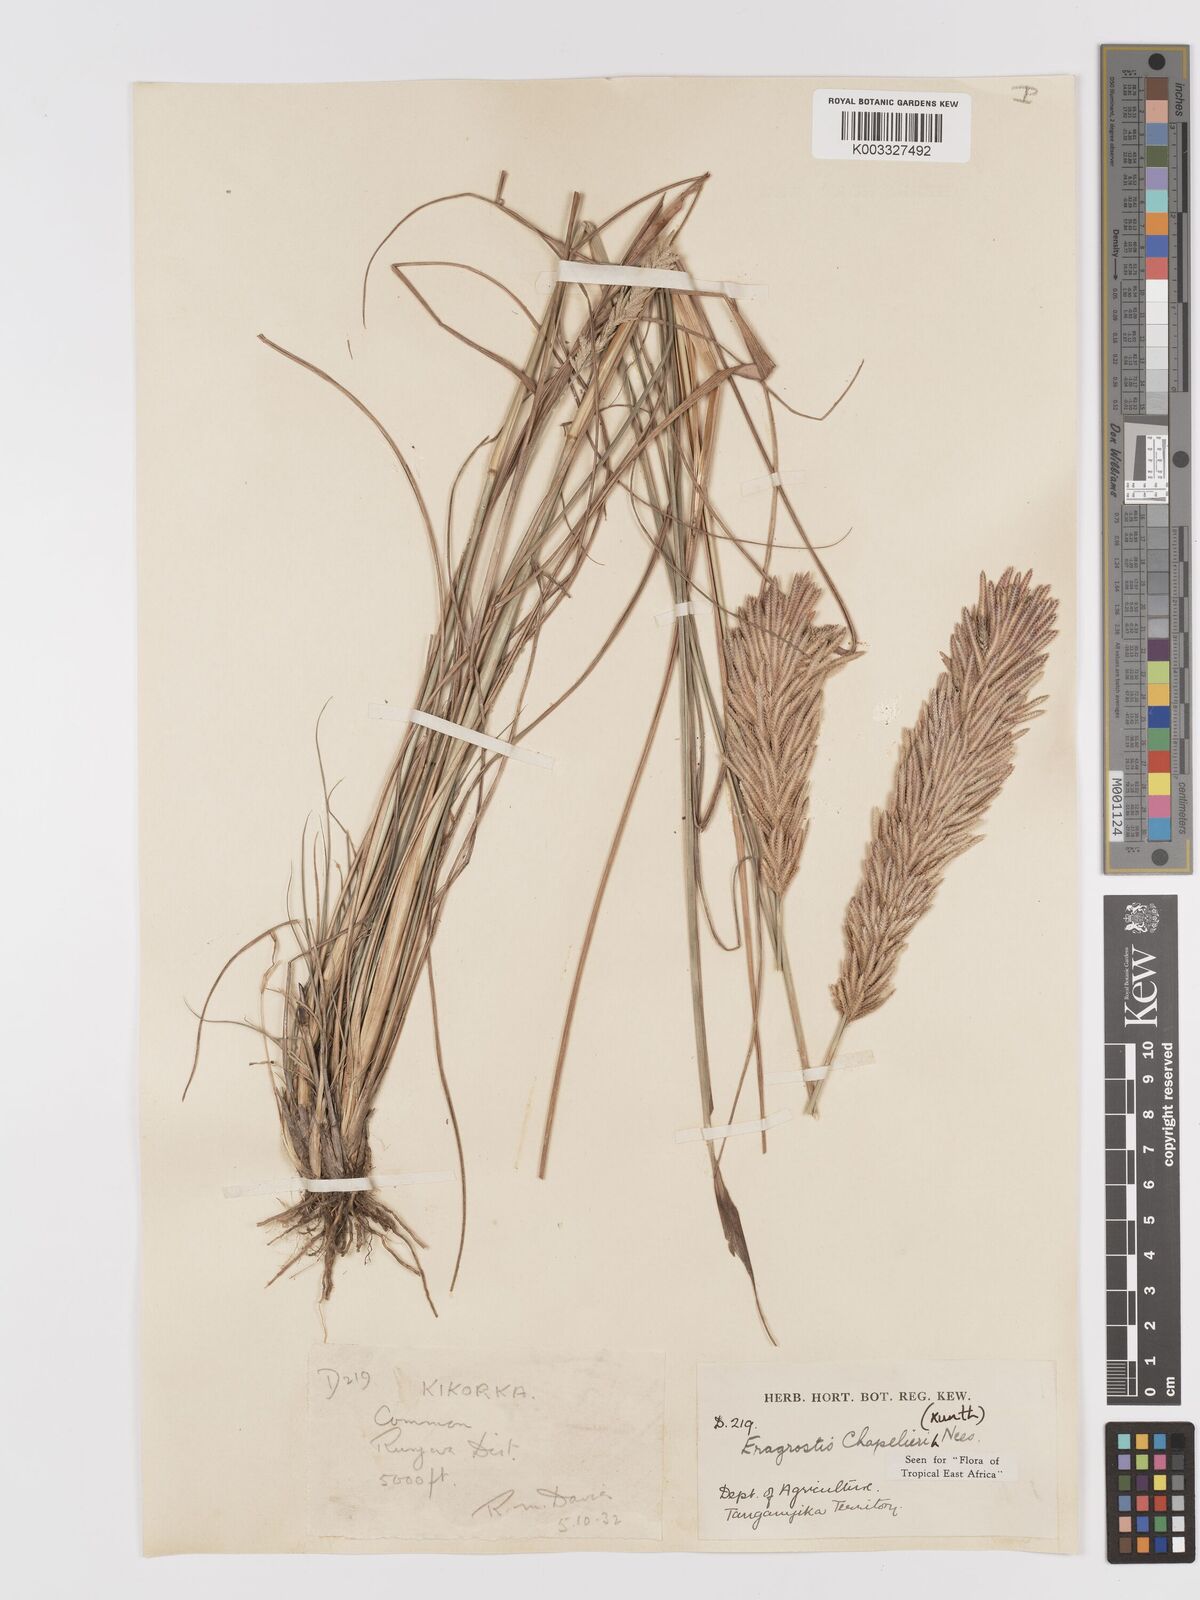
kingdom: Plantae
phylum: Tracheophyta
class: Liliopsida
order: Poales
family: Poaceae
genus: Eragrostis
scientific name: Eragrostis chapelieri
